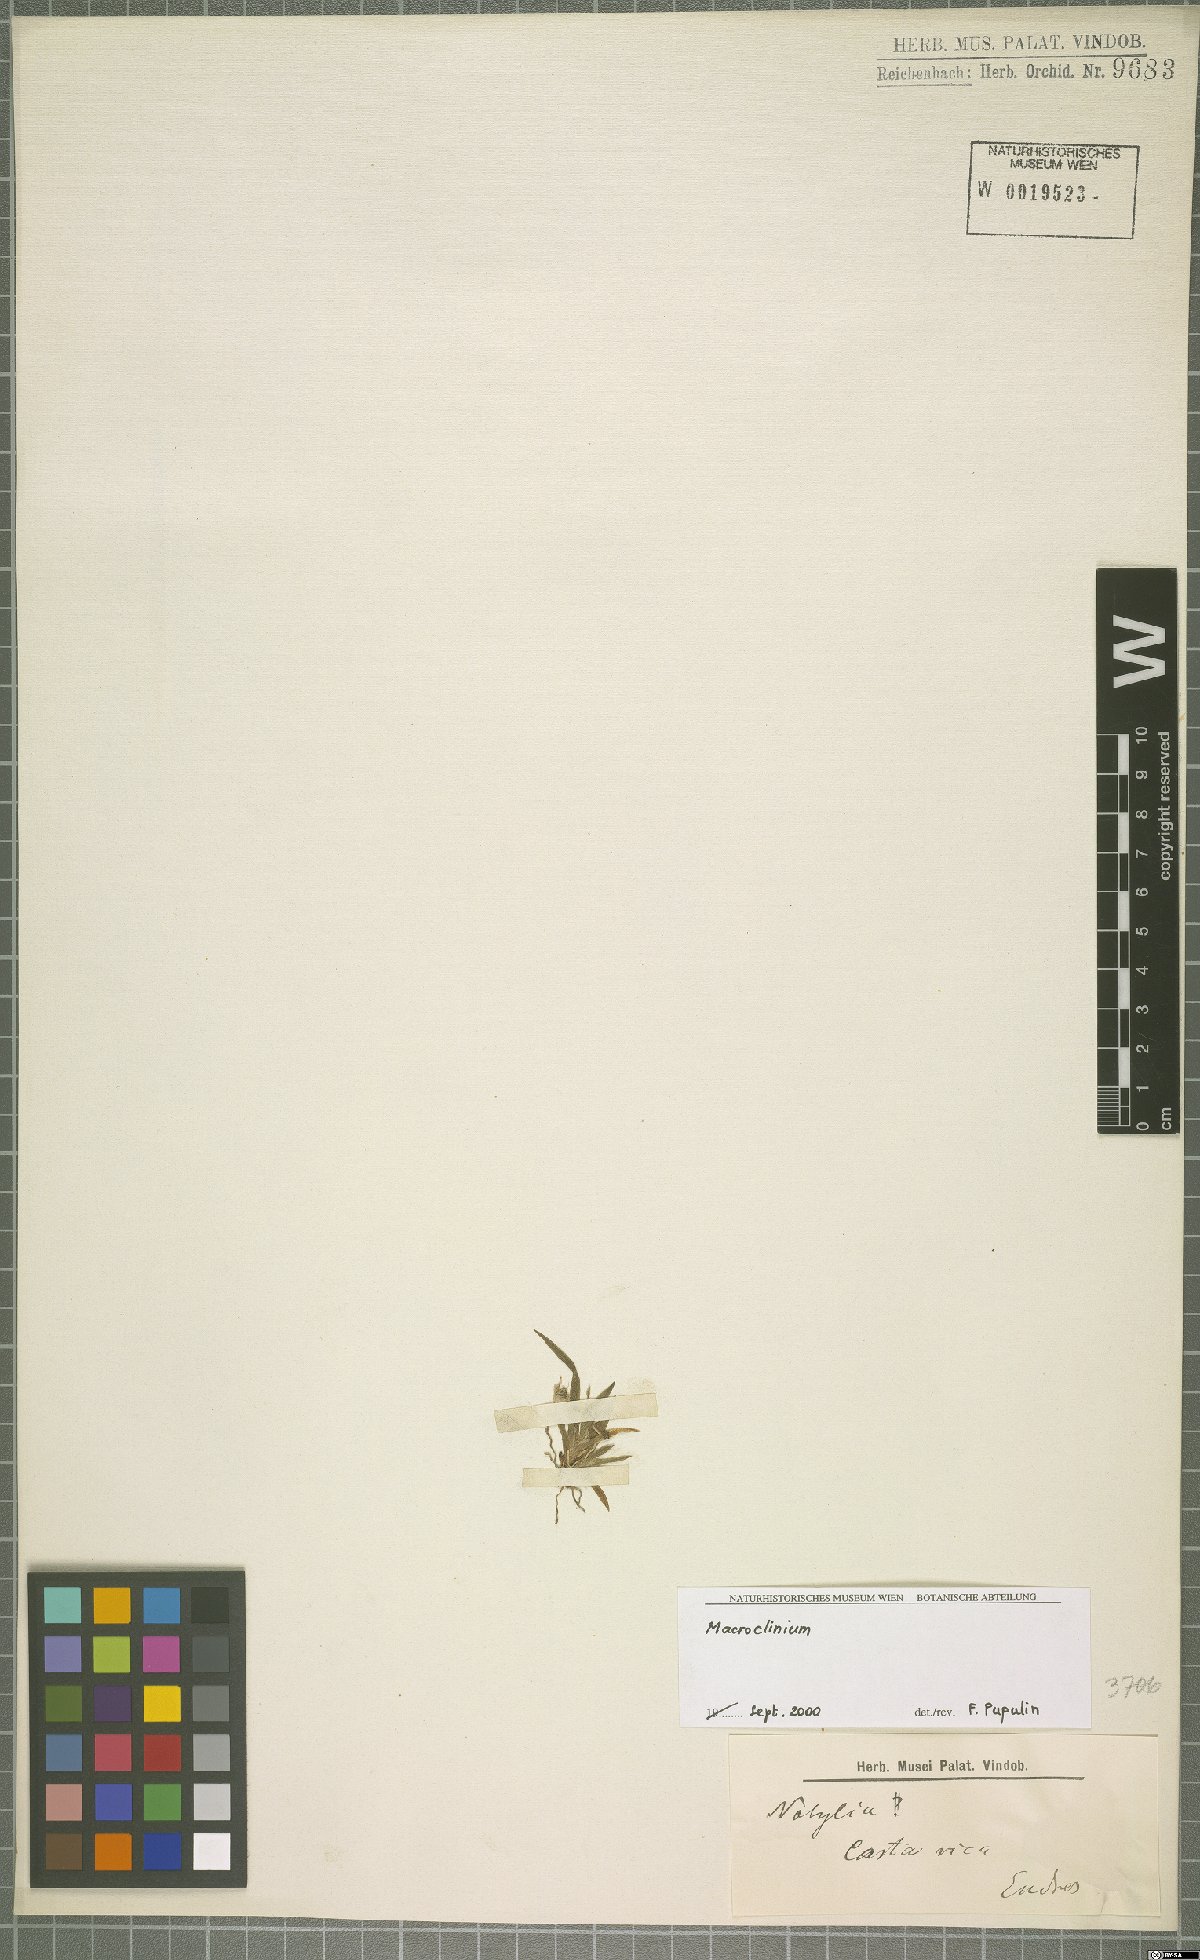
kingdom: Plantae
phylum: Tracheophyta
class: Liliopsida
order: Asparagales
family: Orchidaceae
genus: Macroclinium
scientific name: Macroclinium
